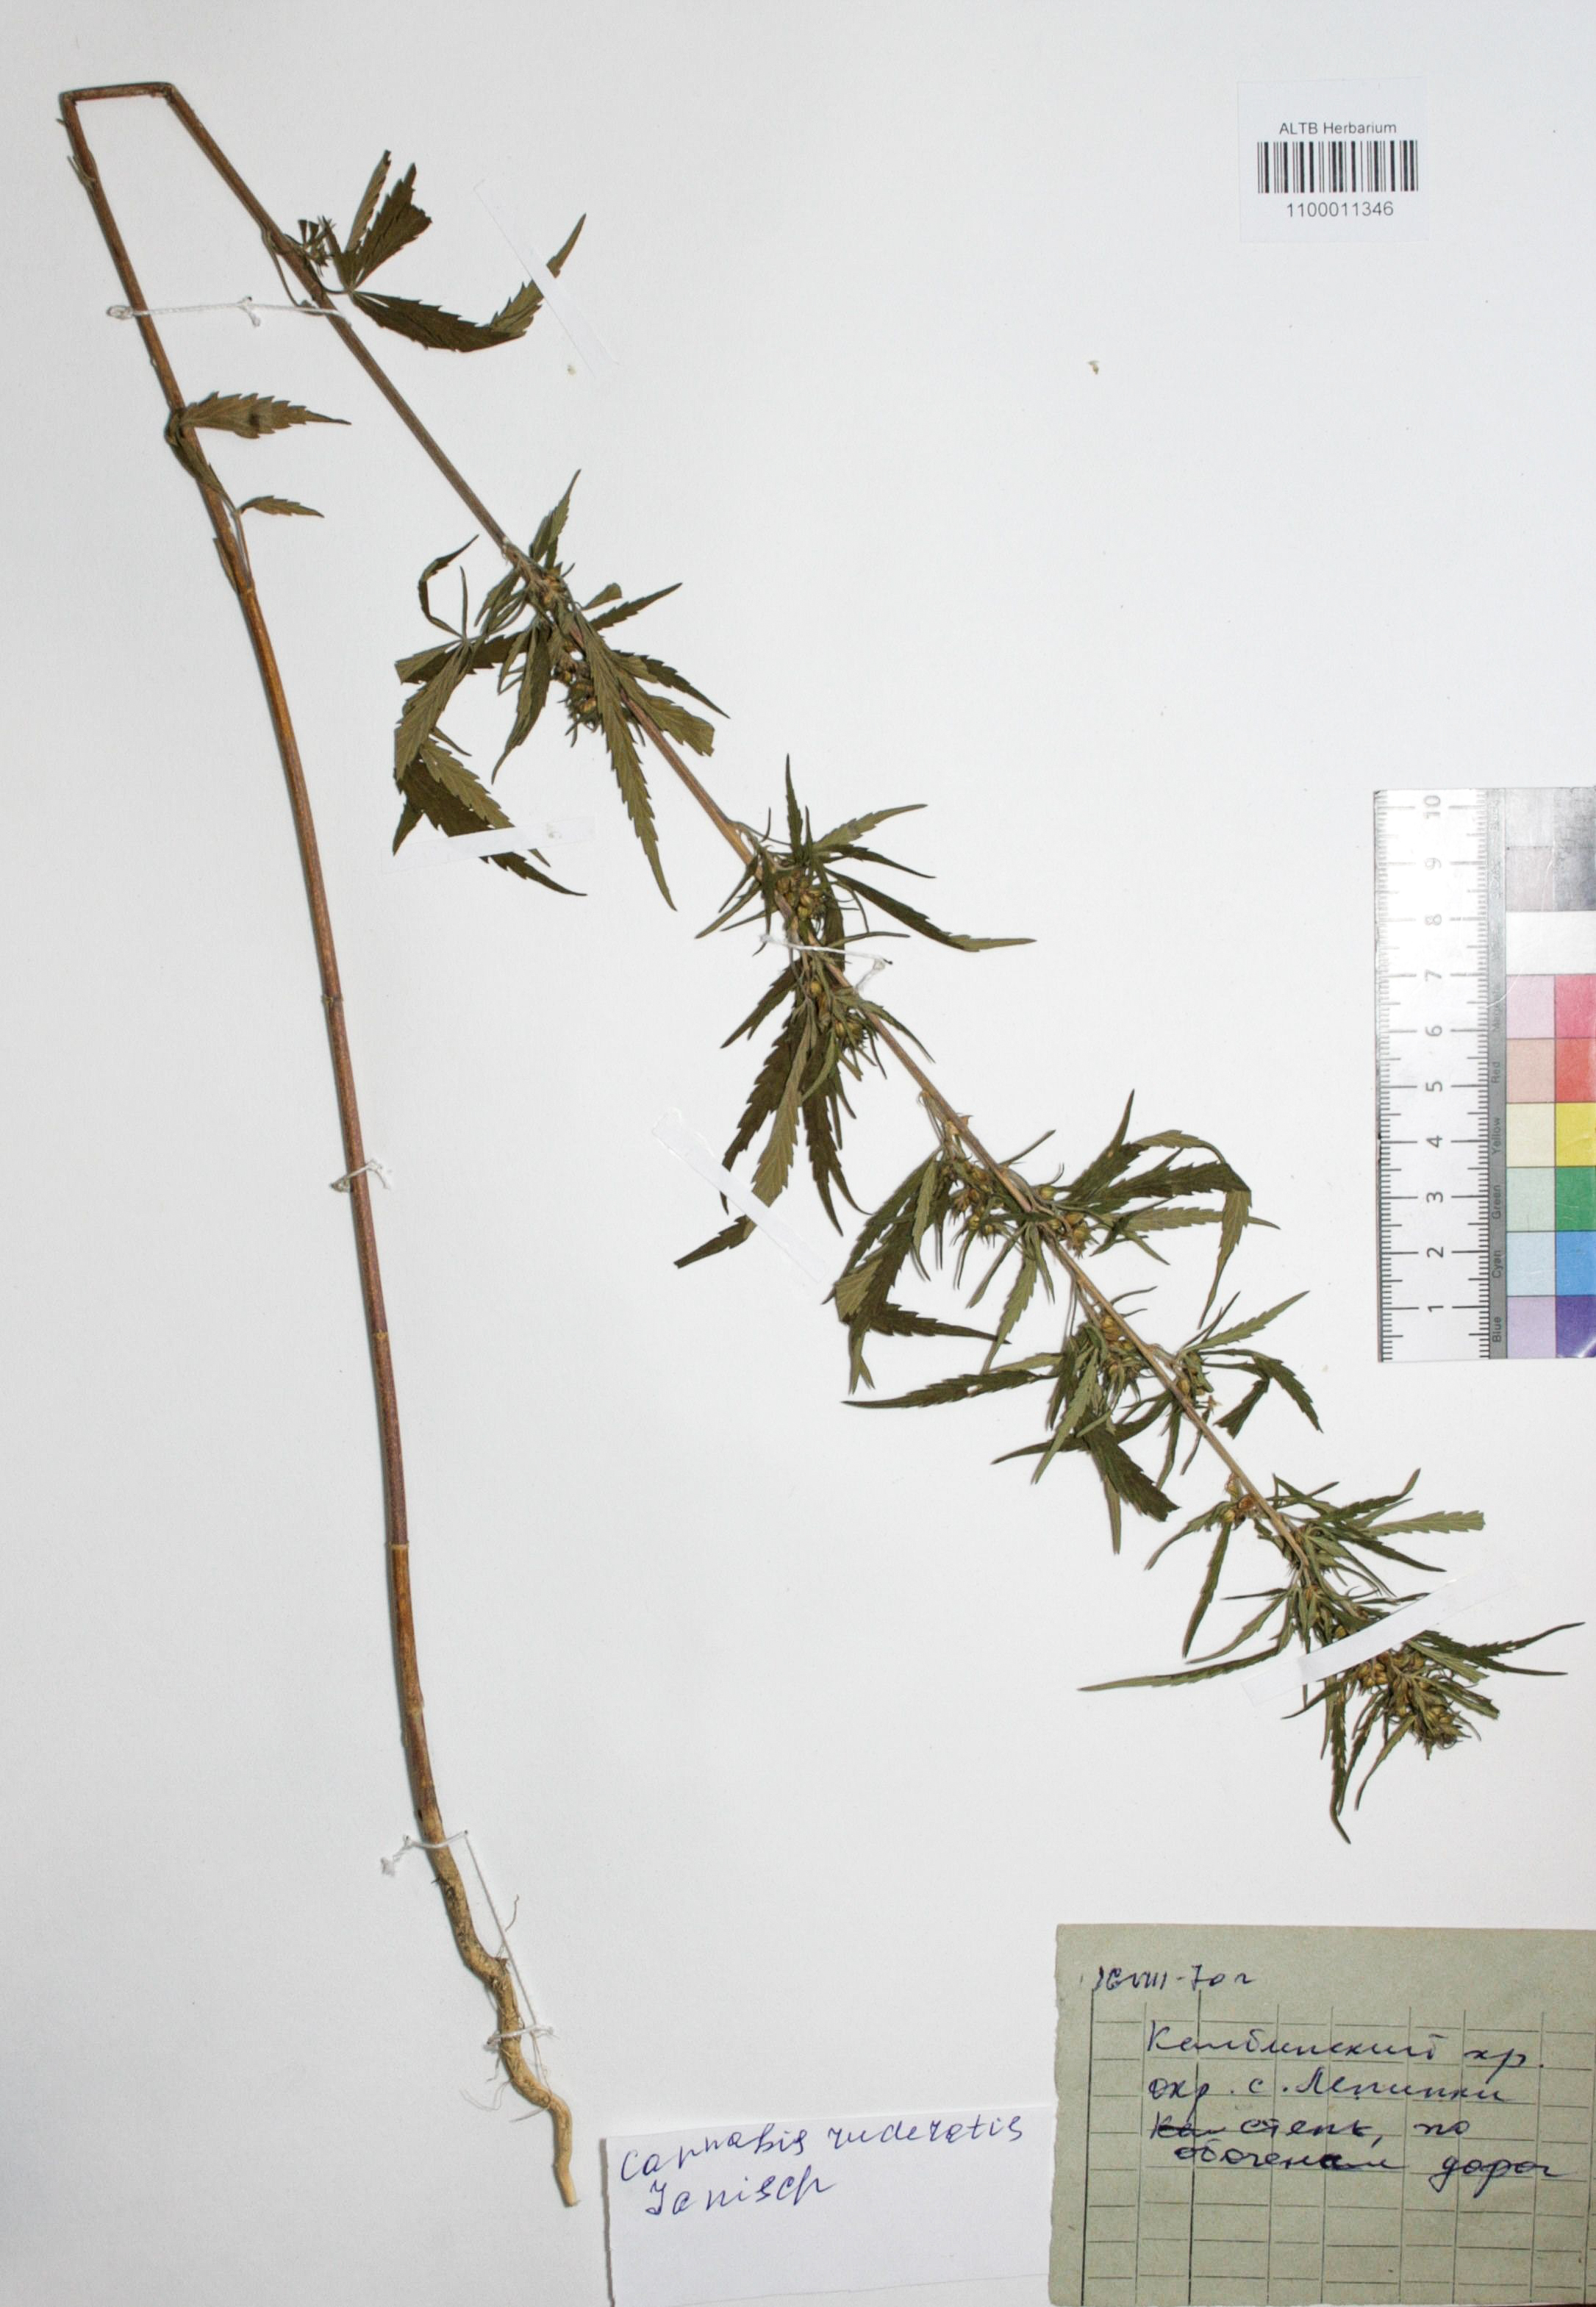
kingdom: Plantae
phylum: Tracheophyta
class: Magnoliopsida
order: Rosales
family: Cannabaceae
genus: Cannabis
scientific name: Cannabis sativa
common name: Hemp
